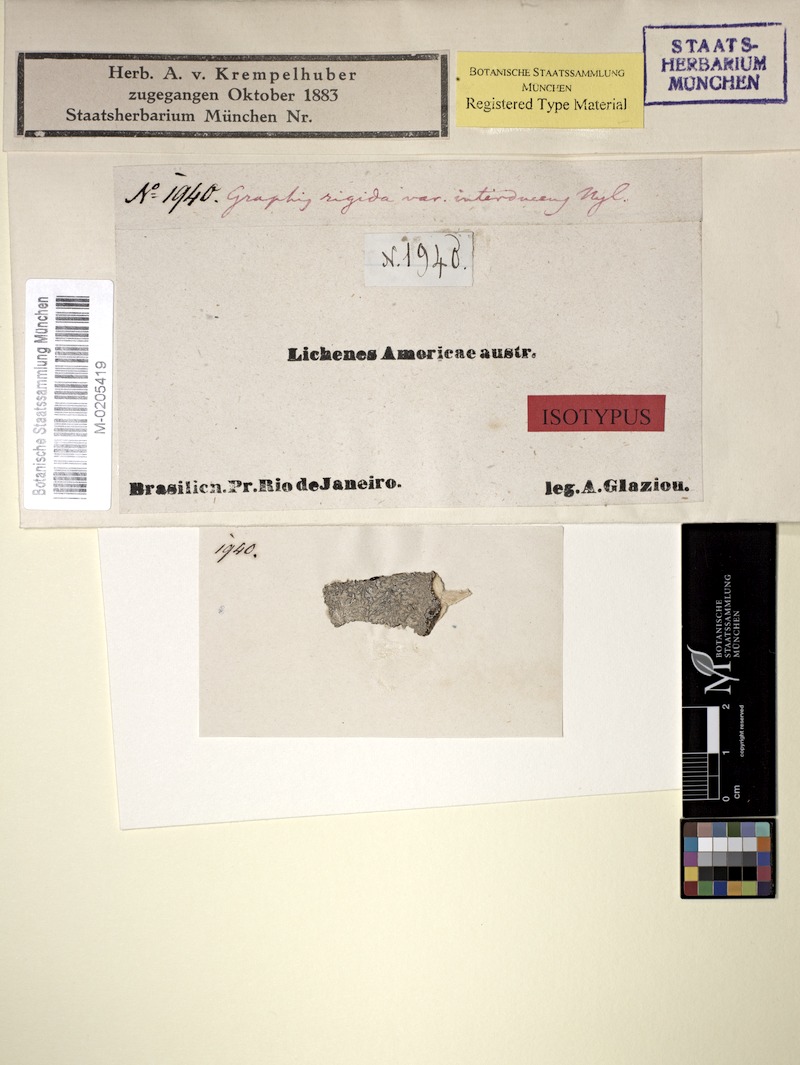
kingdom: Fungi
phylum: Ascomycota
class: Lecanoromycetes
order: Ostropales
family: Graphidaceae
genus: Allographa
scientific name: Allographa acharii
